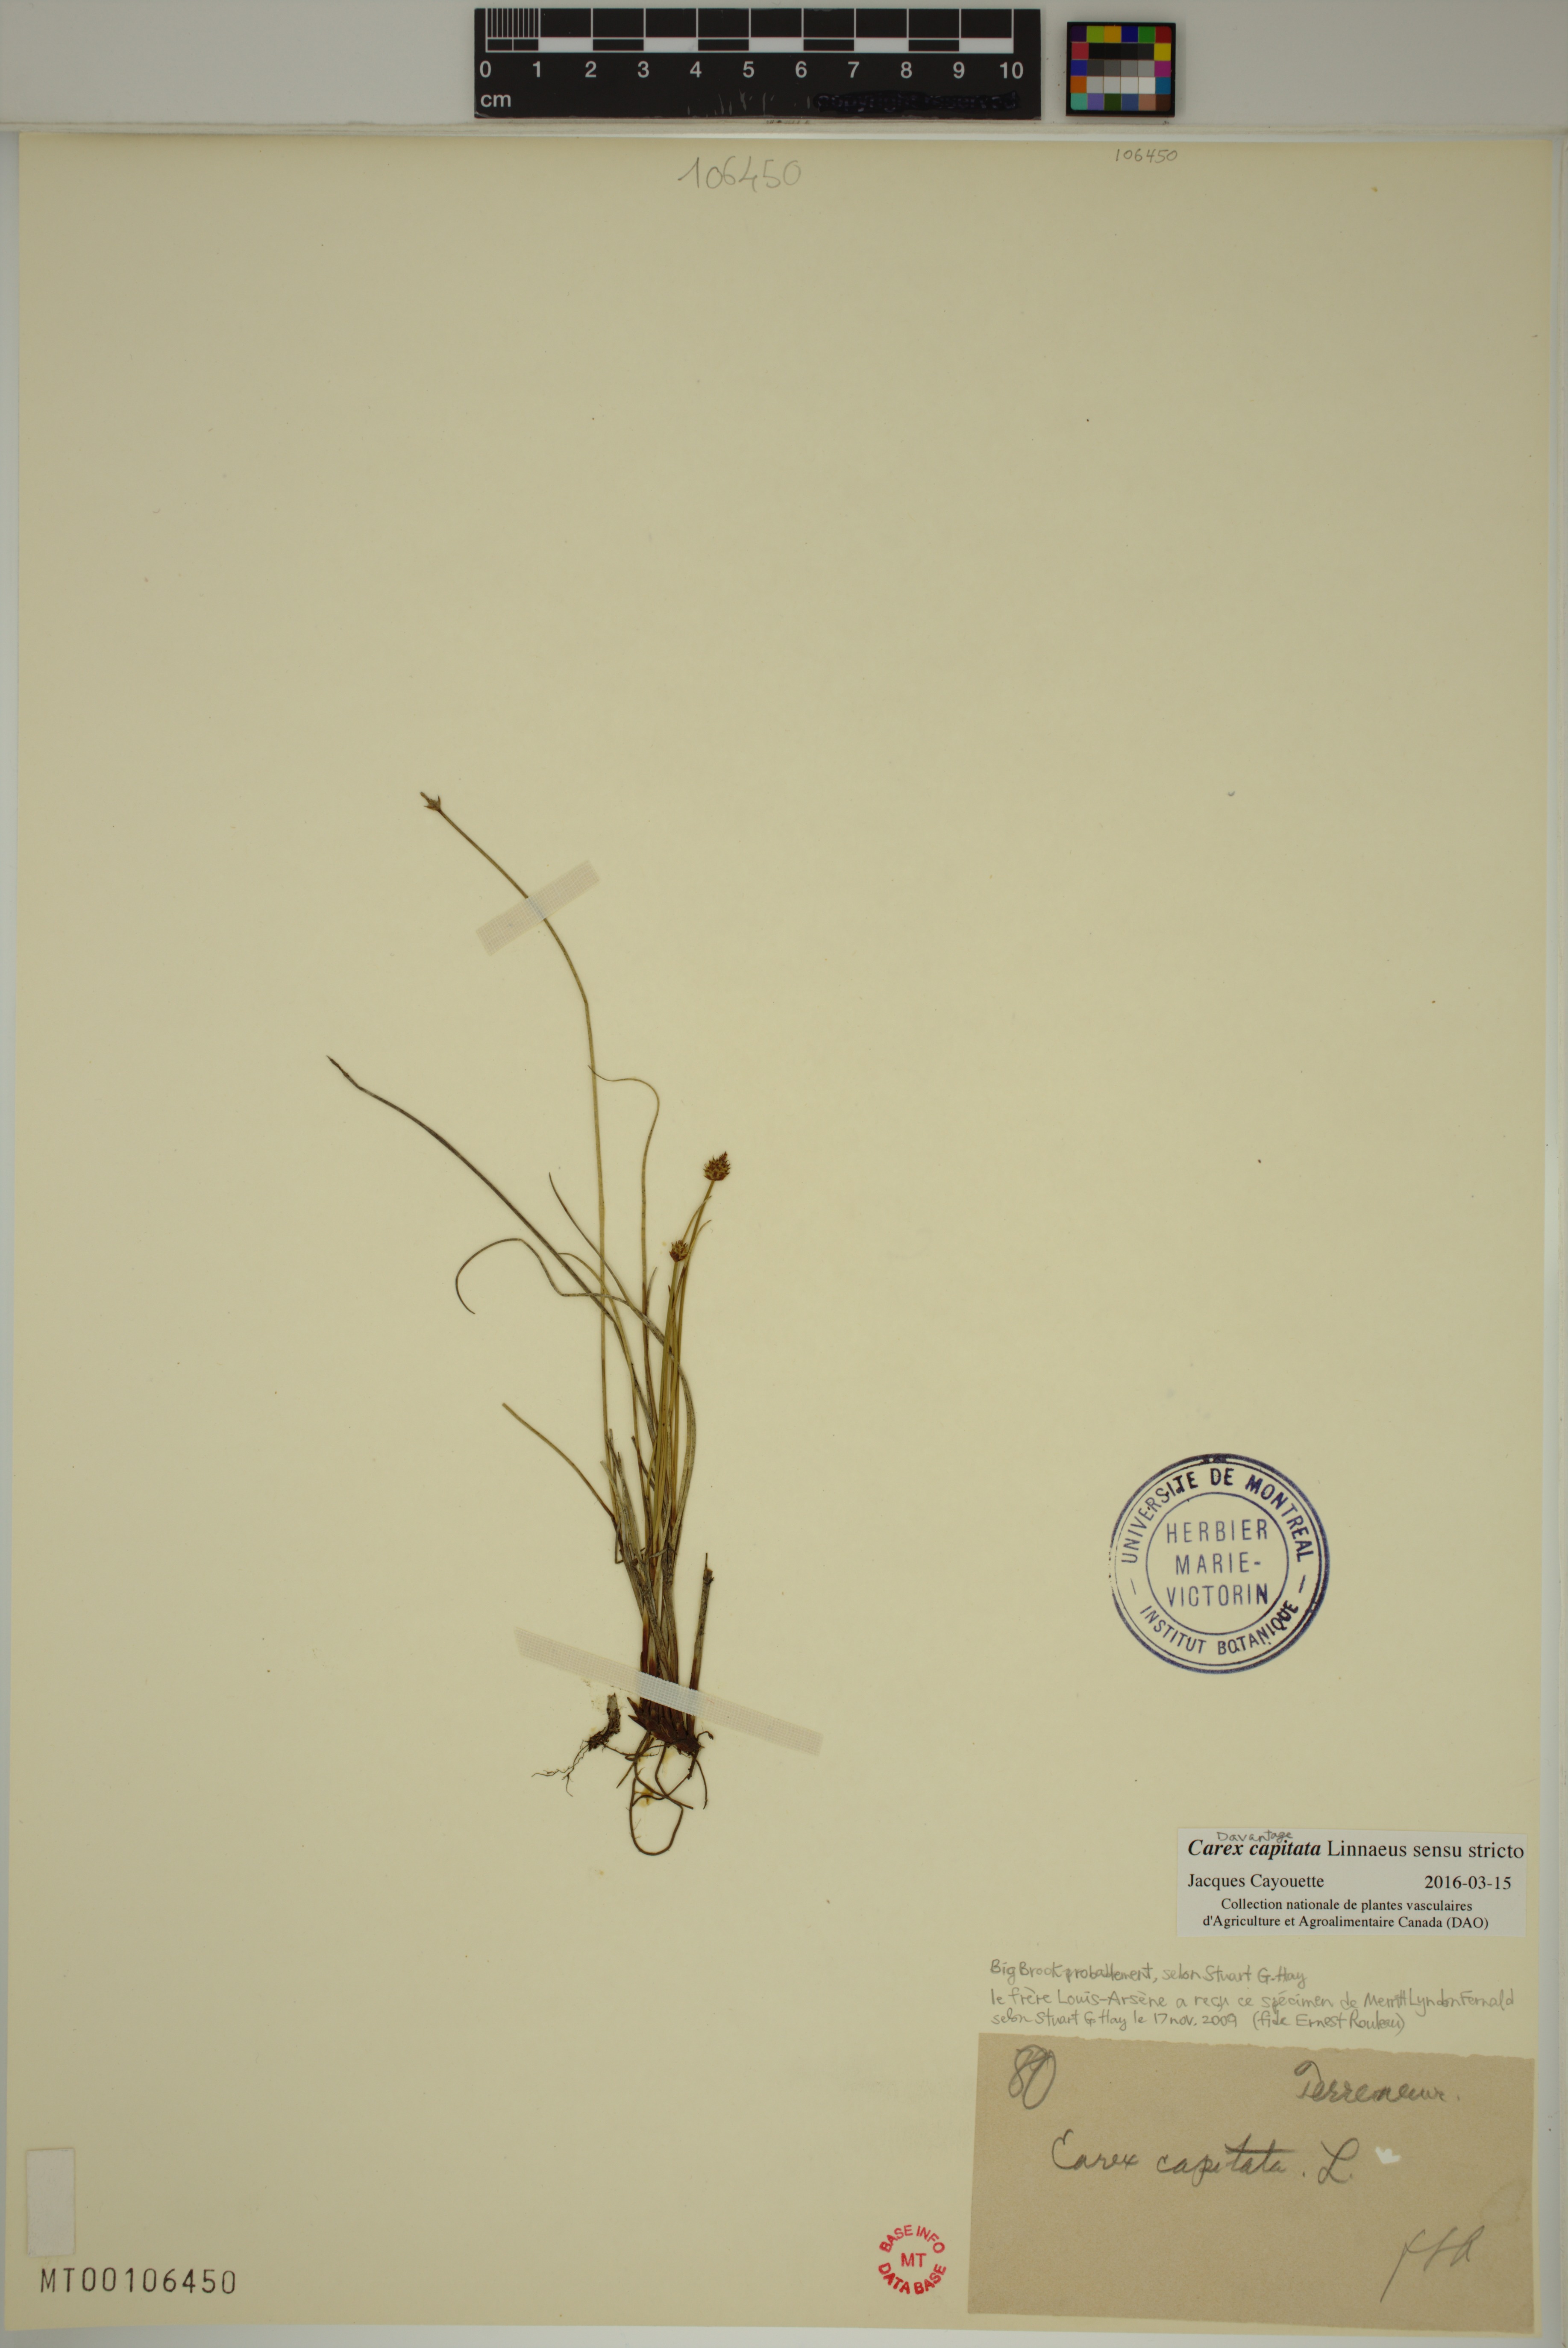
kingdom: Plantae
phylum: Tracheophyta
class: Liliopsida
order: Poales
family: Cyperaceae
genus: Carex
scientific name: Carex capitata
